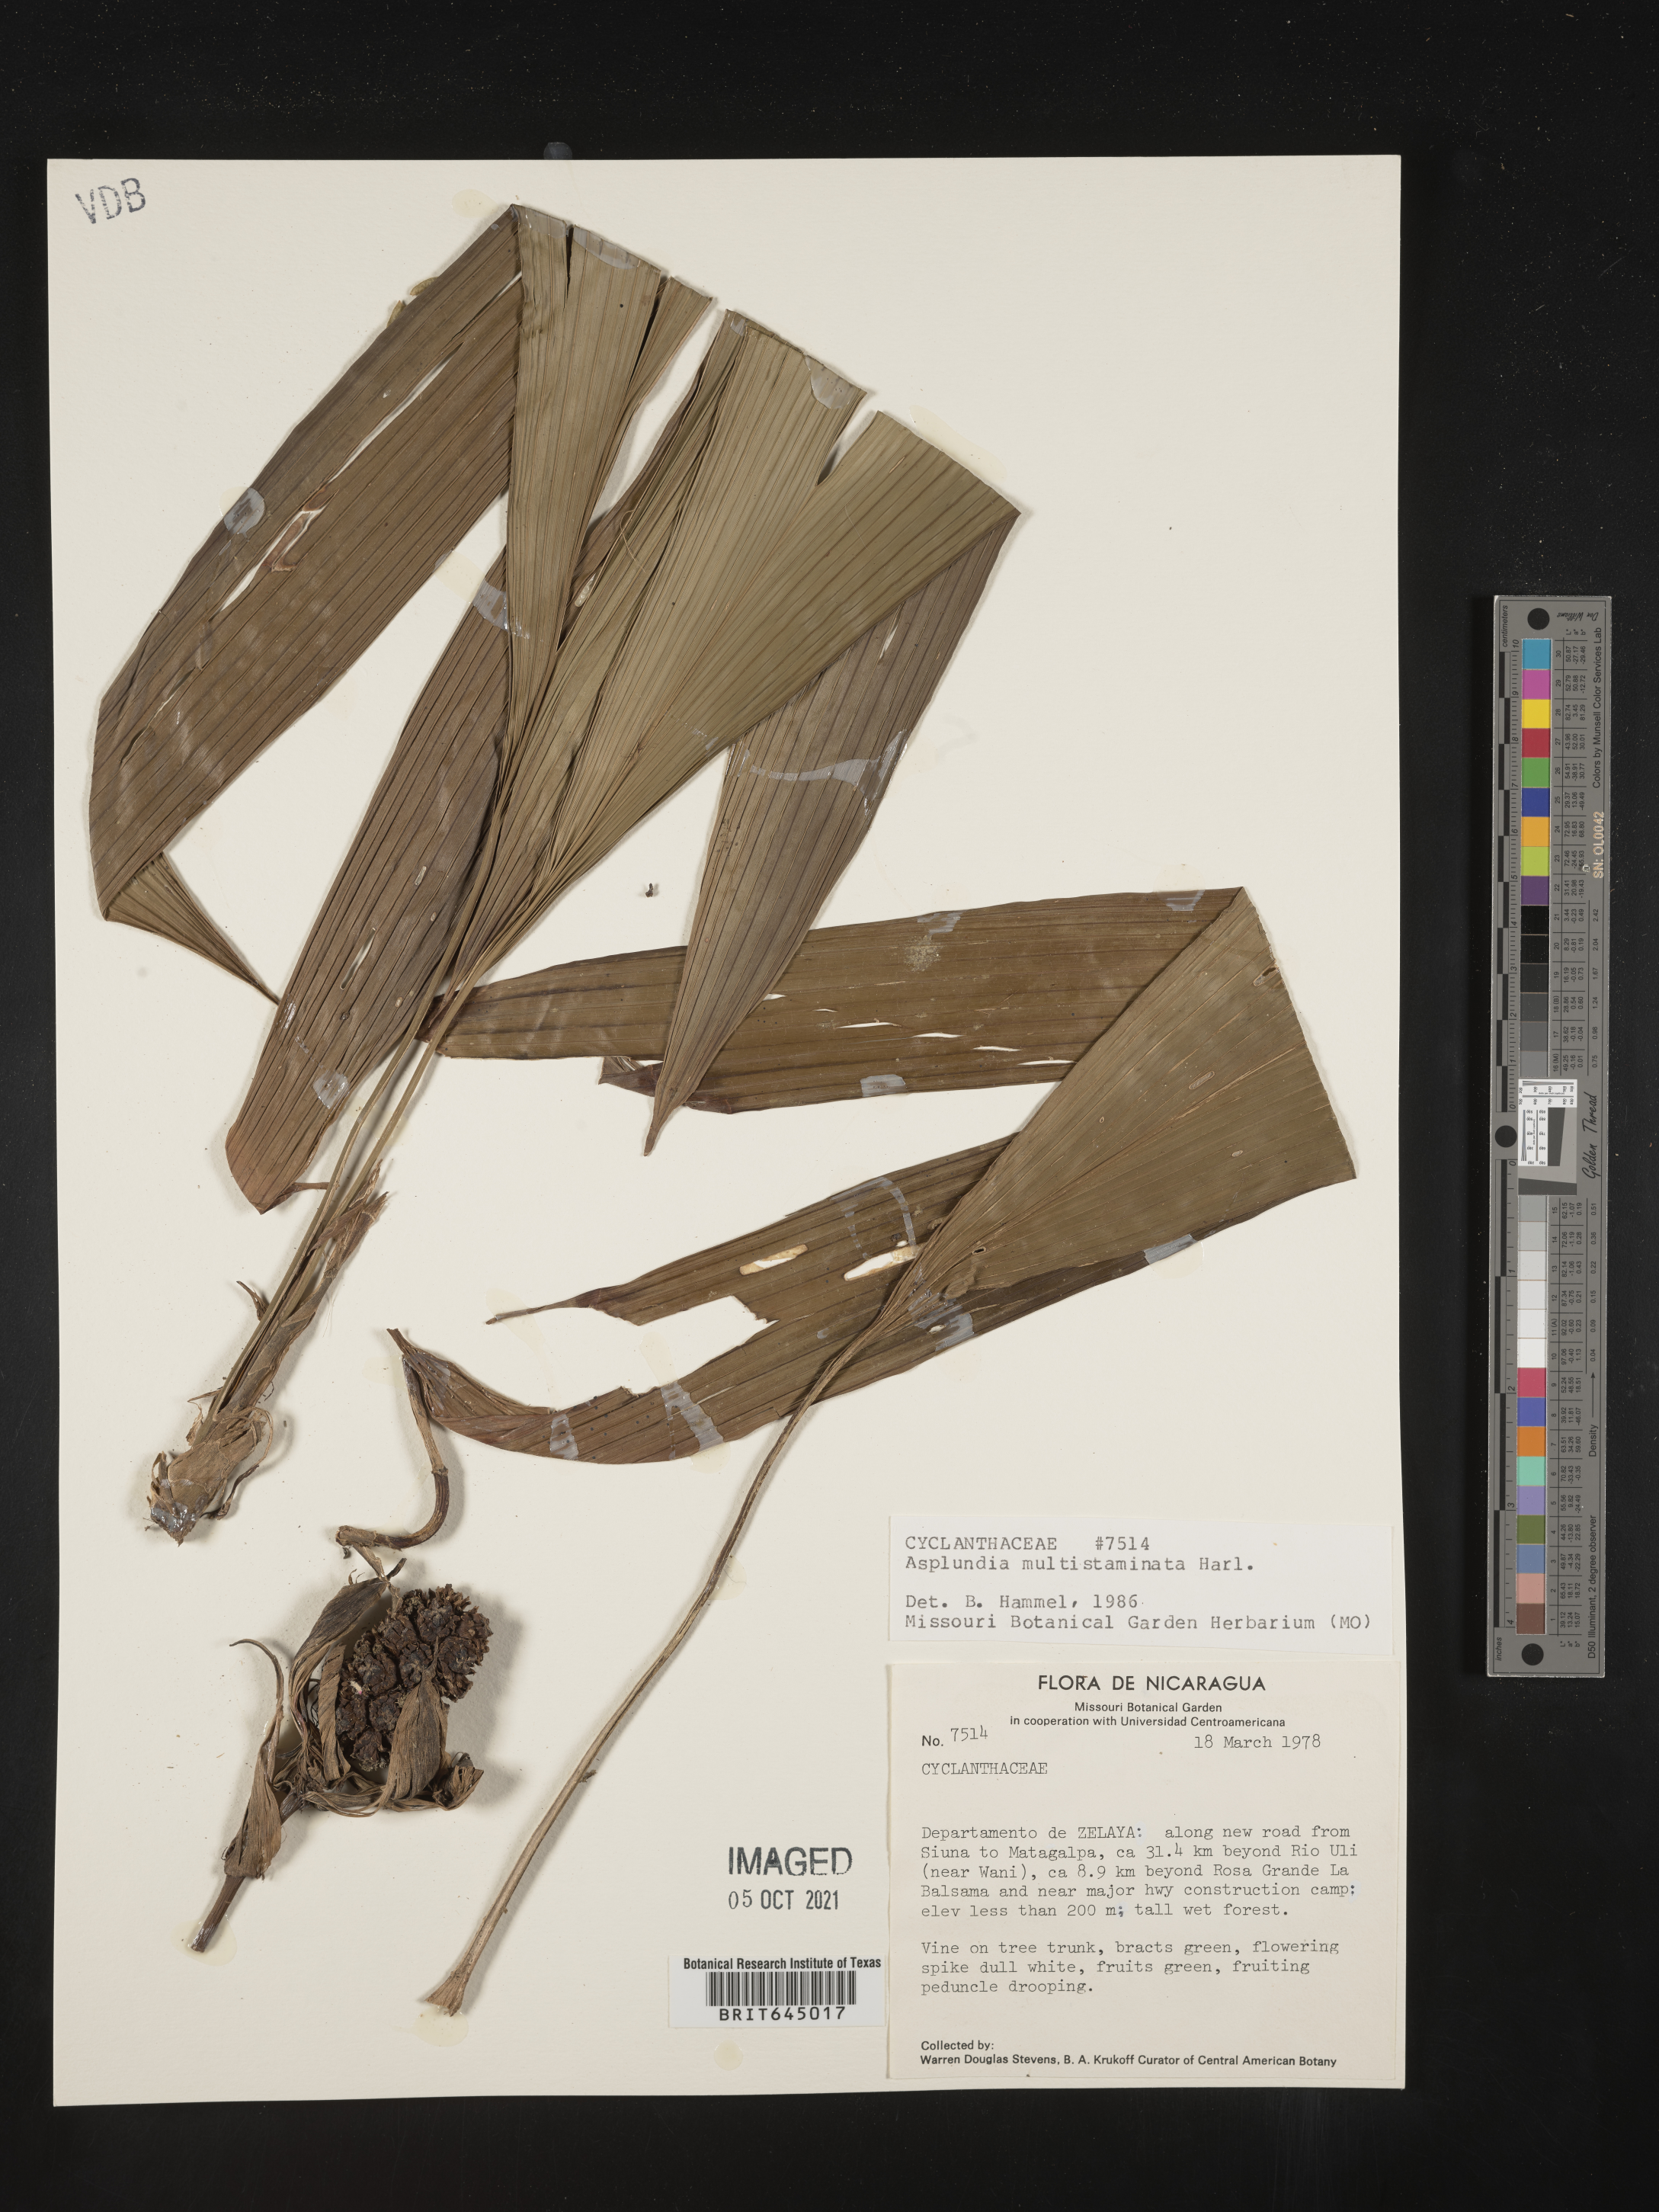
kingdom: Plantae
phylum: Tracheophyta
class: Liliopsida
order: Pandanales
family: Cyclanthaceae
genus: Asplundia
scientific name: Asplundia multistaminata
